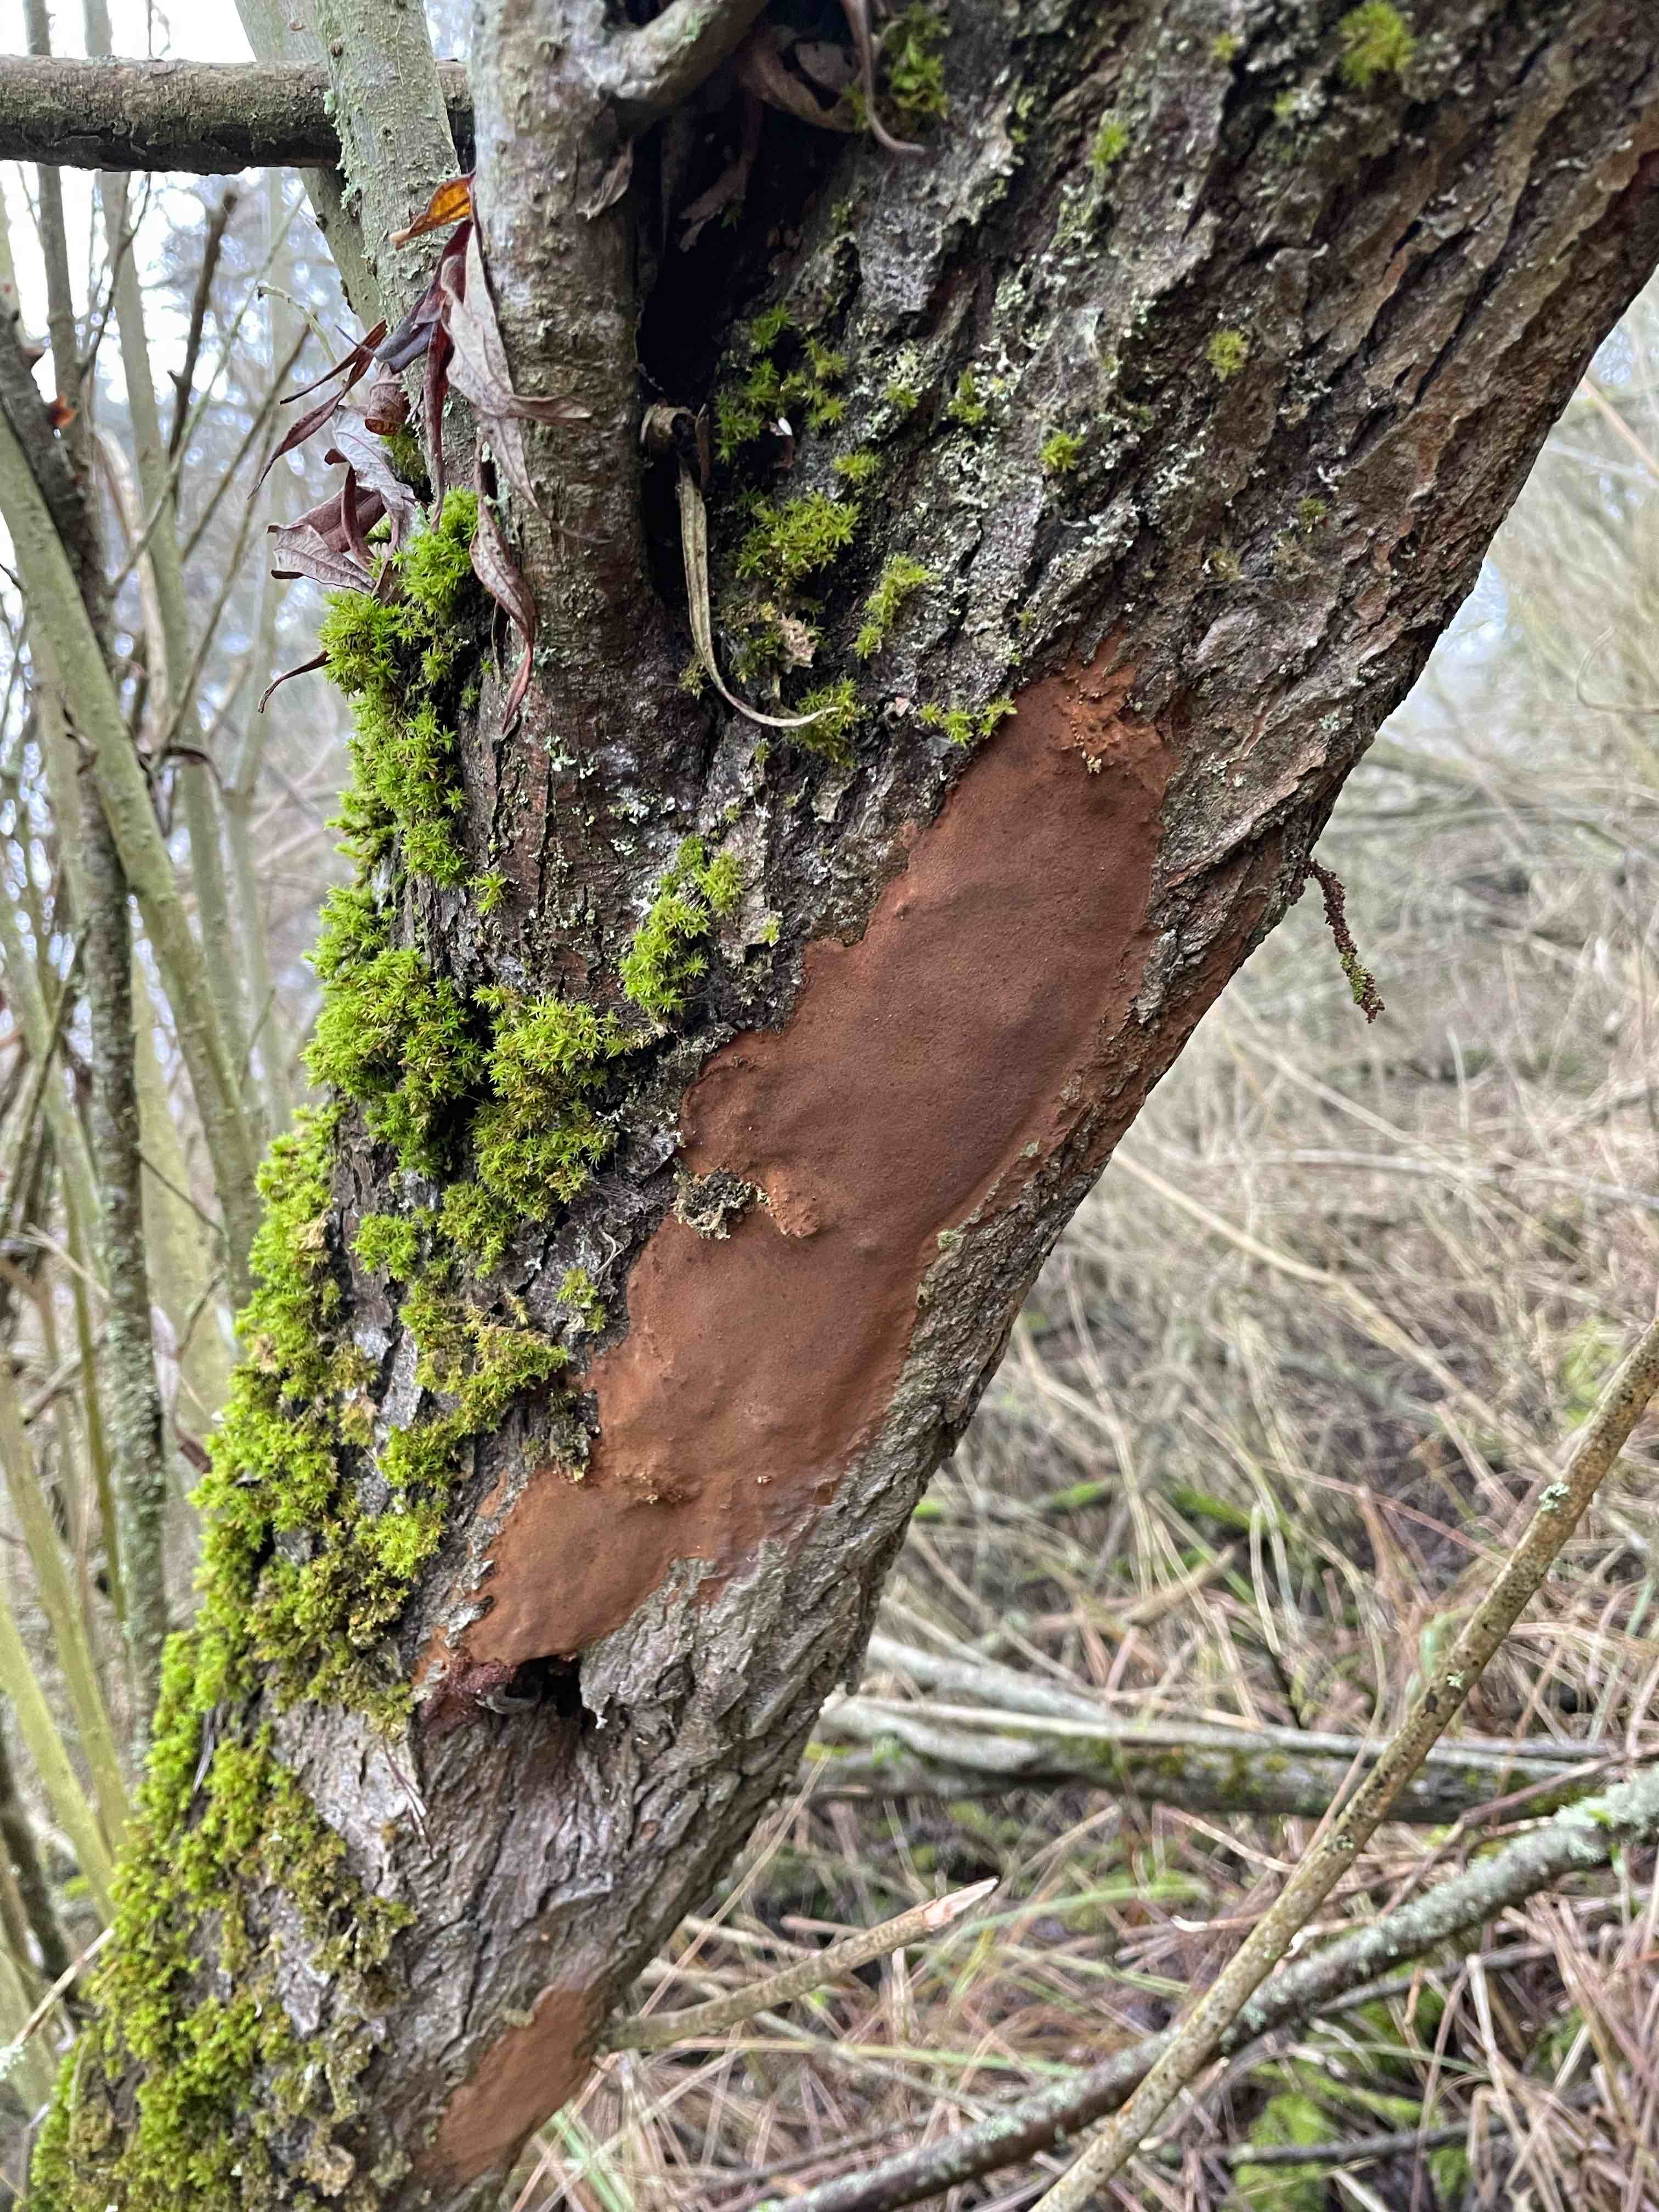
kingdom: Fungi
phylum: Basidiomycota
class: Agaricomycetes
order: Hymenochaetales
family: Hymenochaetaceae
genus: Fomitiporia
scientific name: Fomitiporia punctata
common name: pude-ildporesvamp
